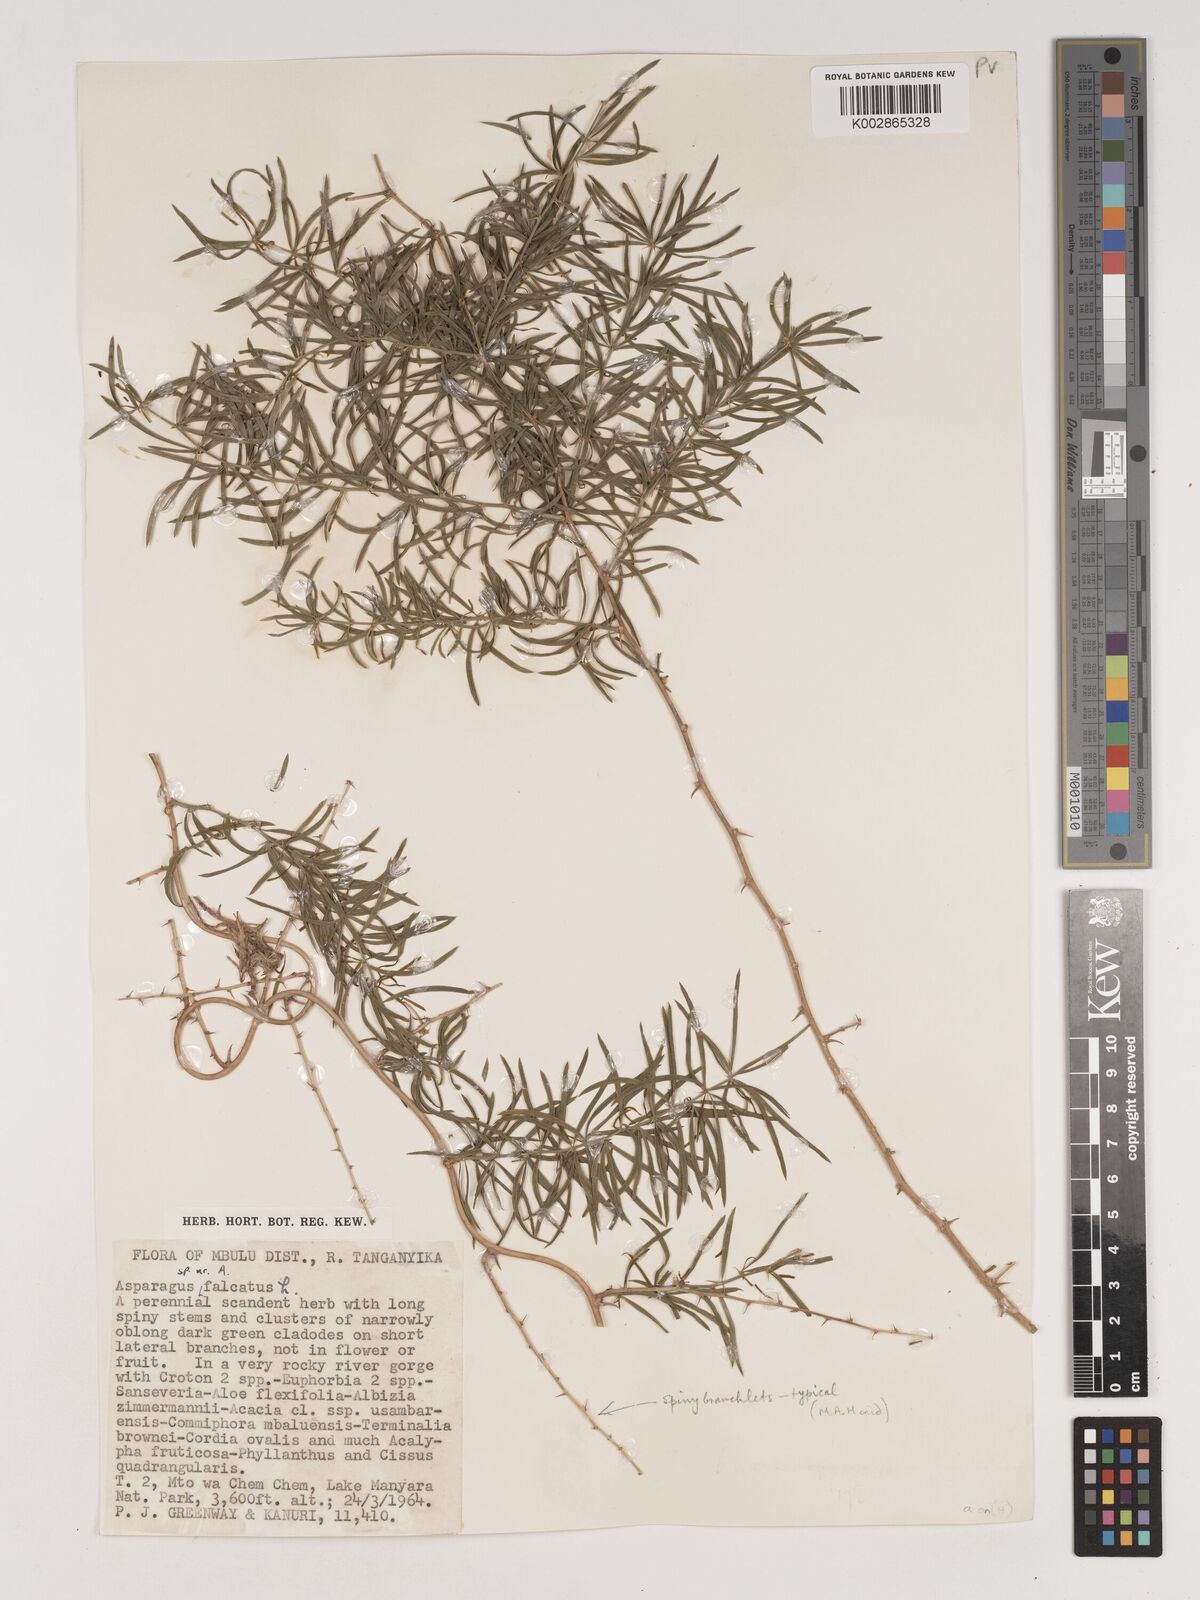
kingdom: Plantae
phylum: Tracheophyta
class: Liliopsida
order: Asparagales
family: Asparagaceae
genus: Asparagus
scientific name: Asparagus
